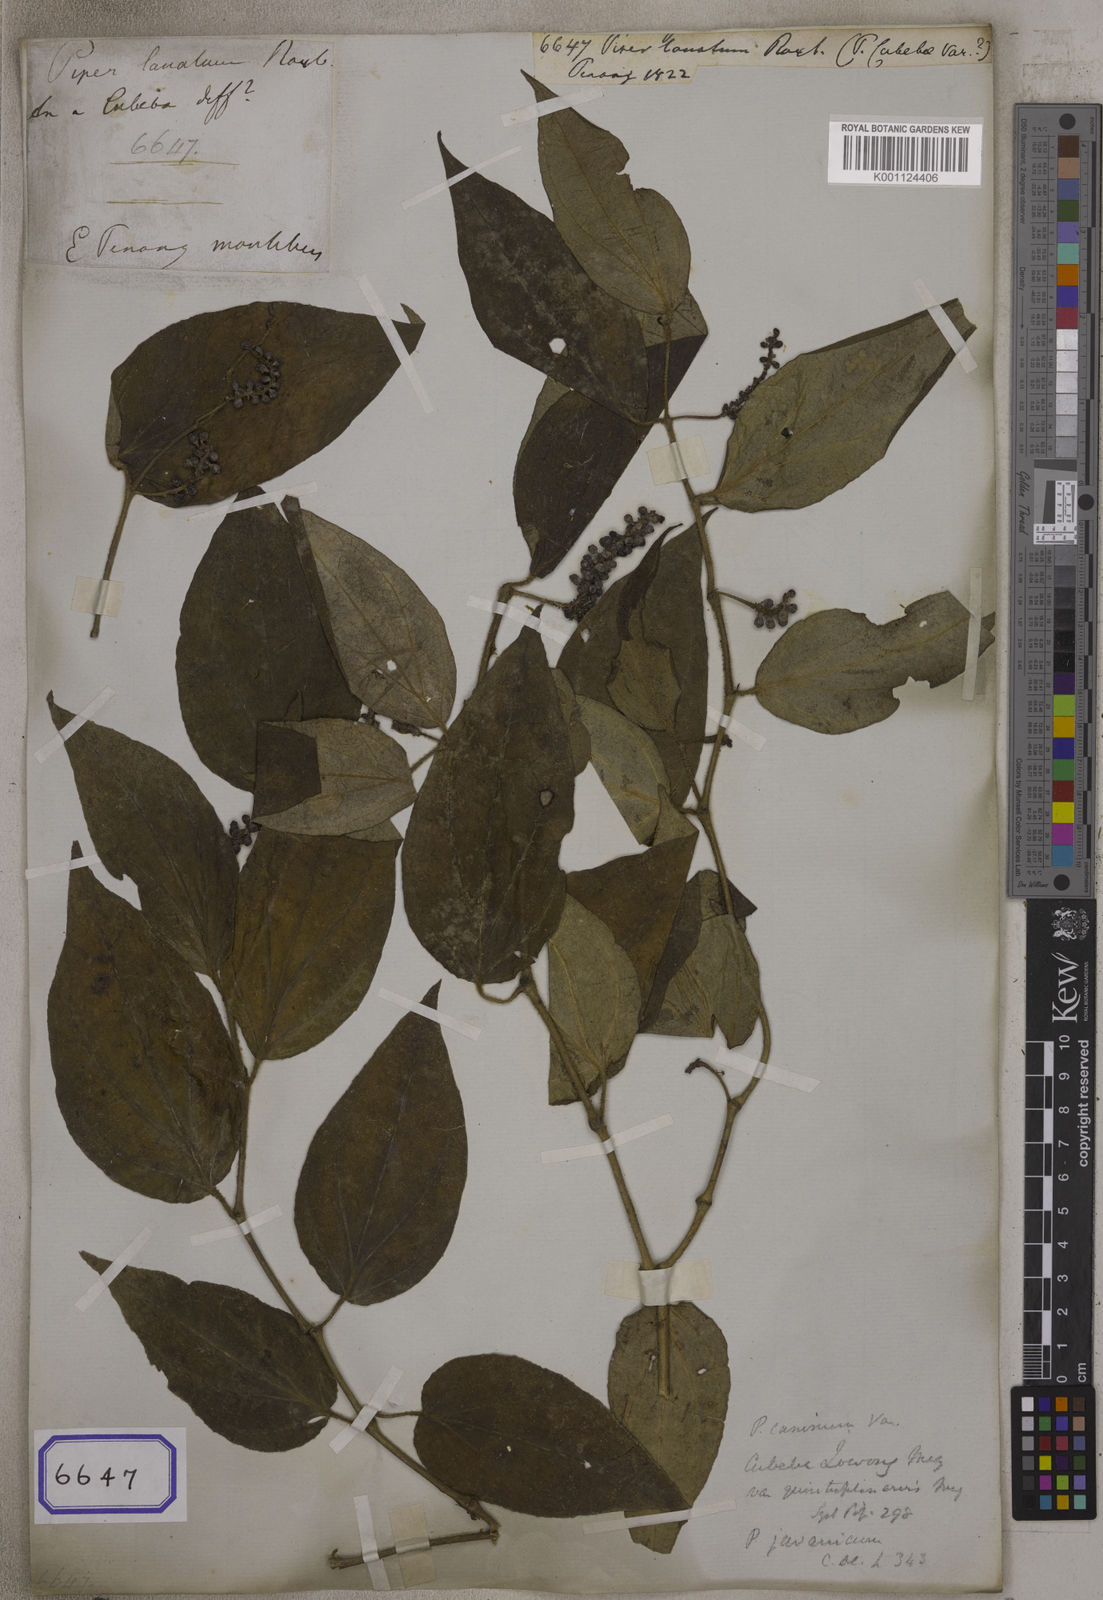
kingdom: Plantae
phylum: Tracheophyta
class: Magnoliopsida
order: Piperales
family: Piperaceae
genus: Piper
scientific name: Piper lanatum
